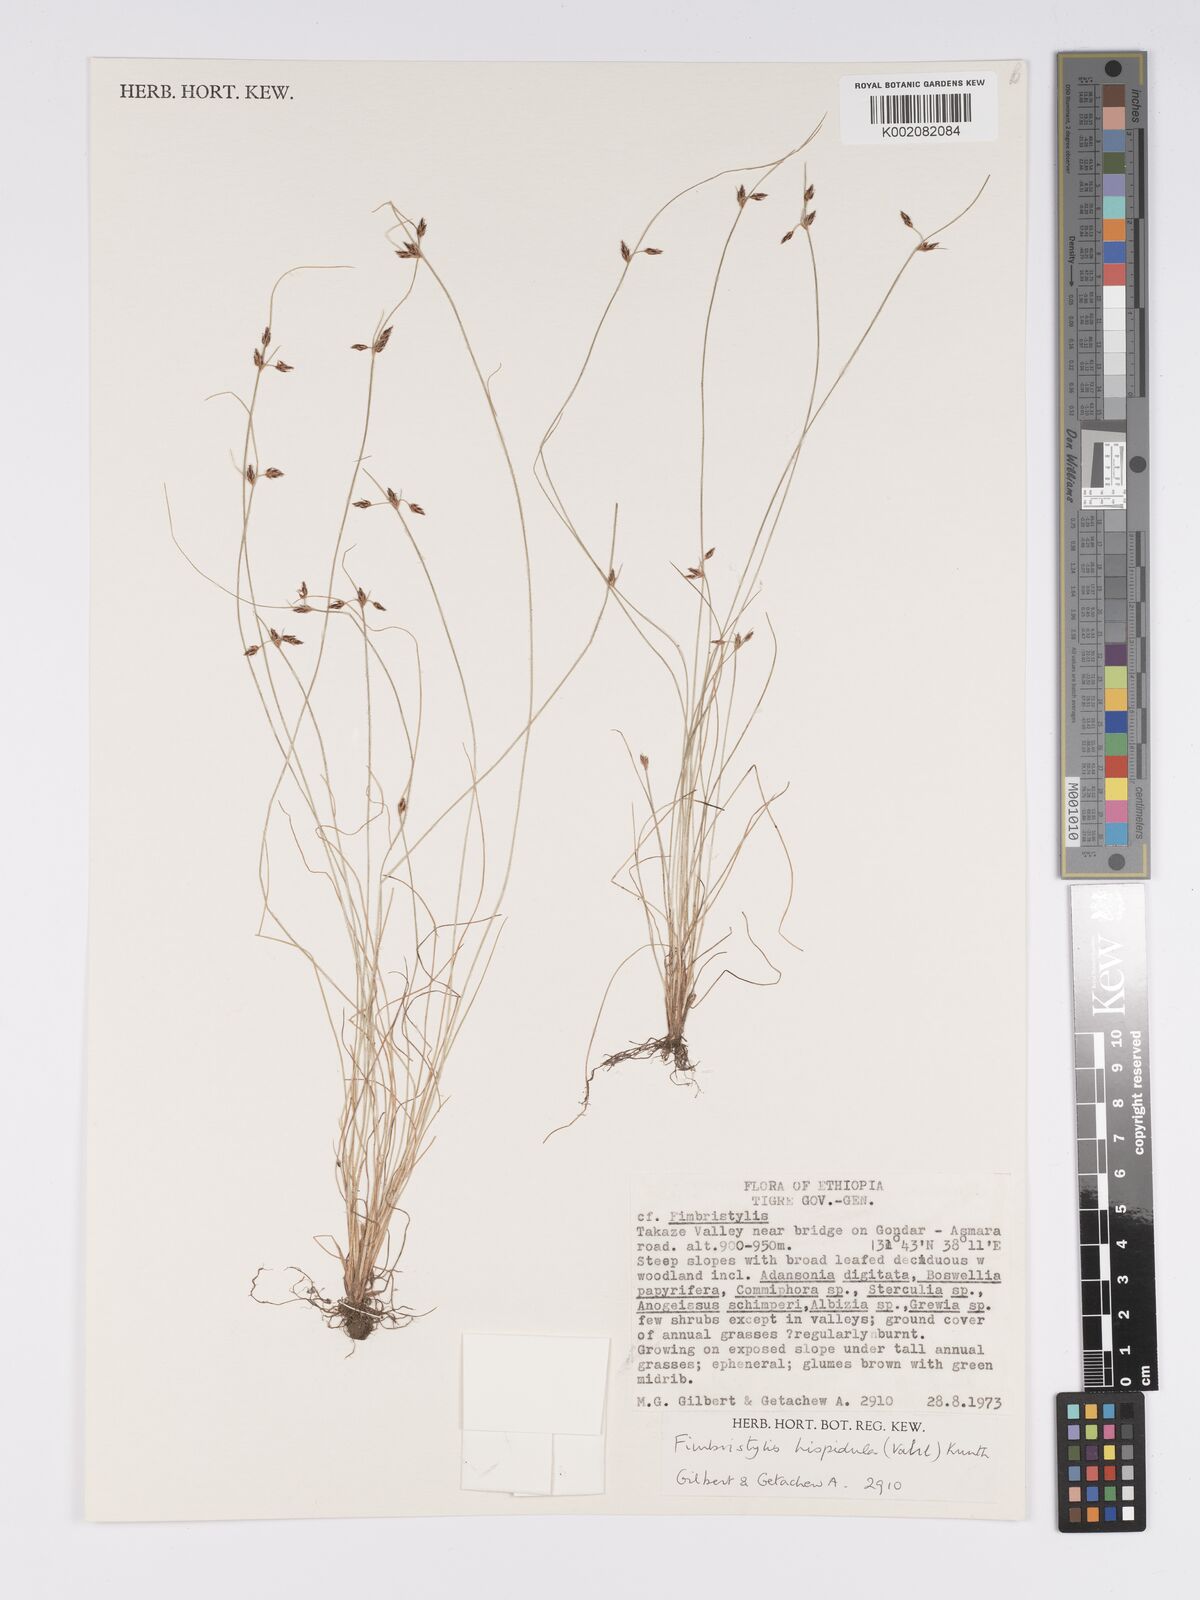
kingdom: Plantae
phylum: Tracheophyta
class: Liliopsida
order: Poales
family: Cyperaceae
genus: Bulbostylis
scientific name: Bulbostylis hispidula
